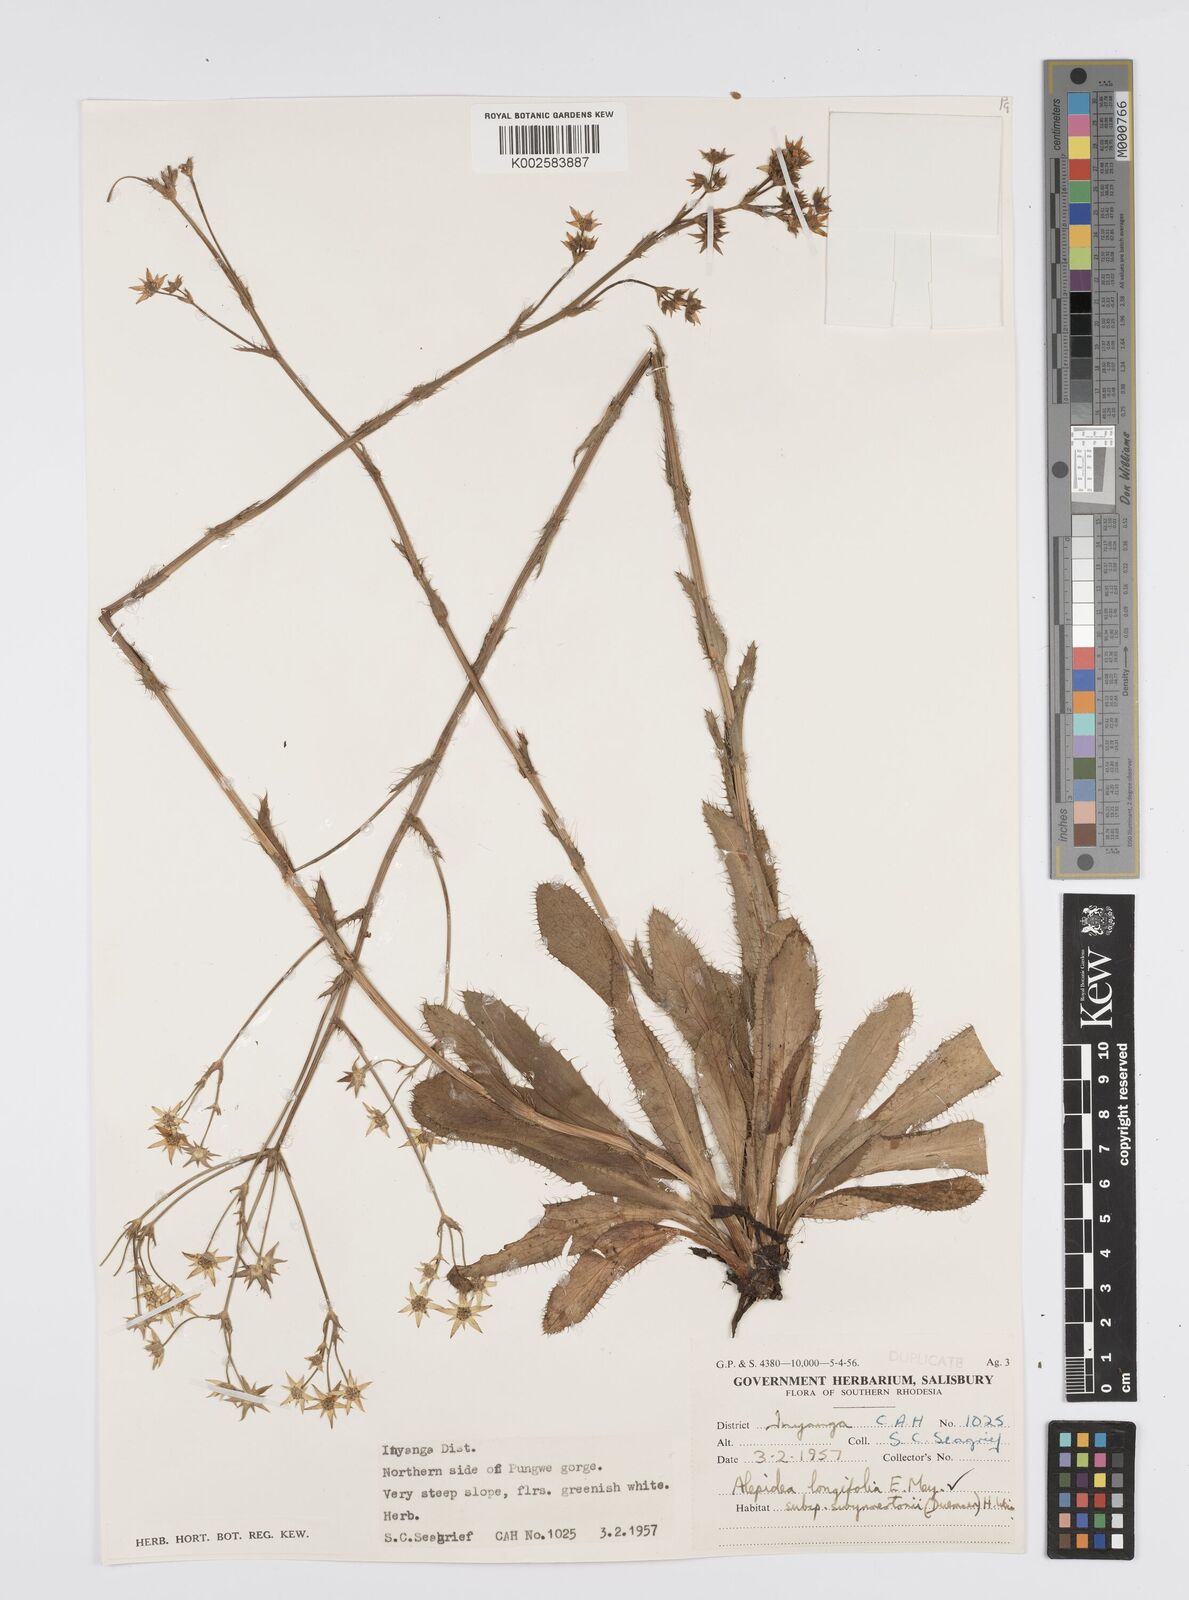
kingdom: Plantae
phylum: Tracheophyta
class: Magnoliopsida
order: Apiales
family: Apiaceae
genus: Alepidea
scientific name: Alepidea
